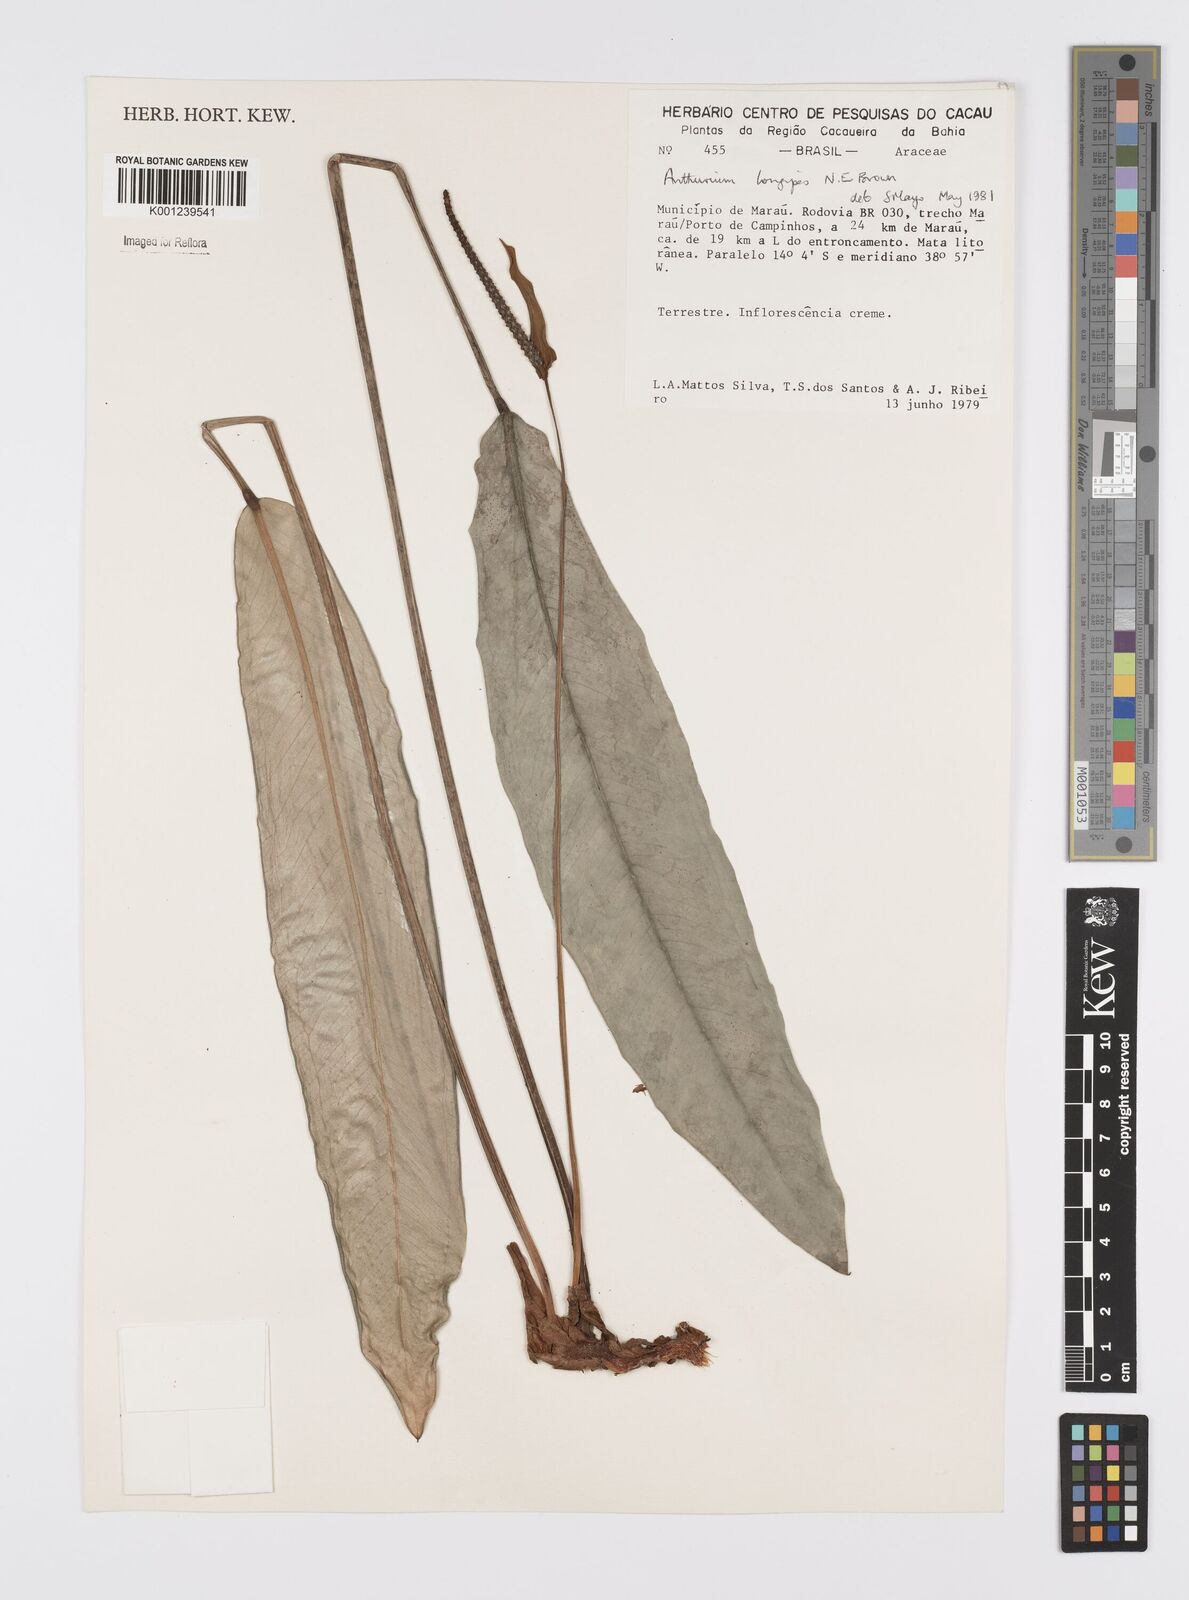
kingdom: Plantae
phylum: Tracheophyta
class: Liliopsida
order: Alismatales
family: Araceae
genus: Anthurium
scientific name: Anthurium longipes
